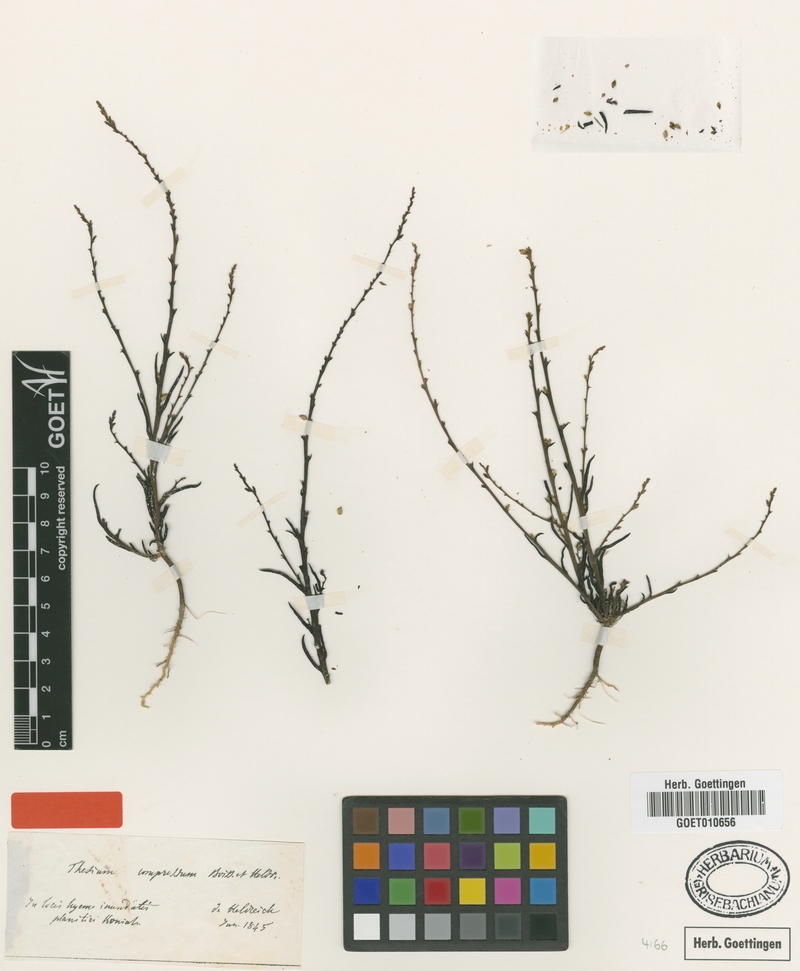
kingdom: Plantae
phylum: Tracheophyta
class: Magnoliopsida
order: Santalales
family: Thesiaceae
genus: Thesium
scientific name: Thesium compressum
